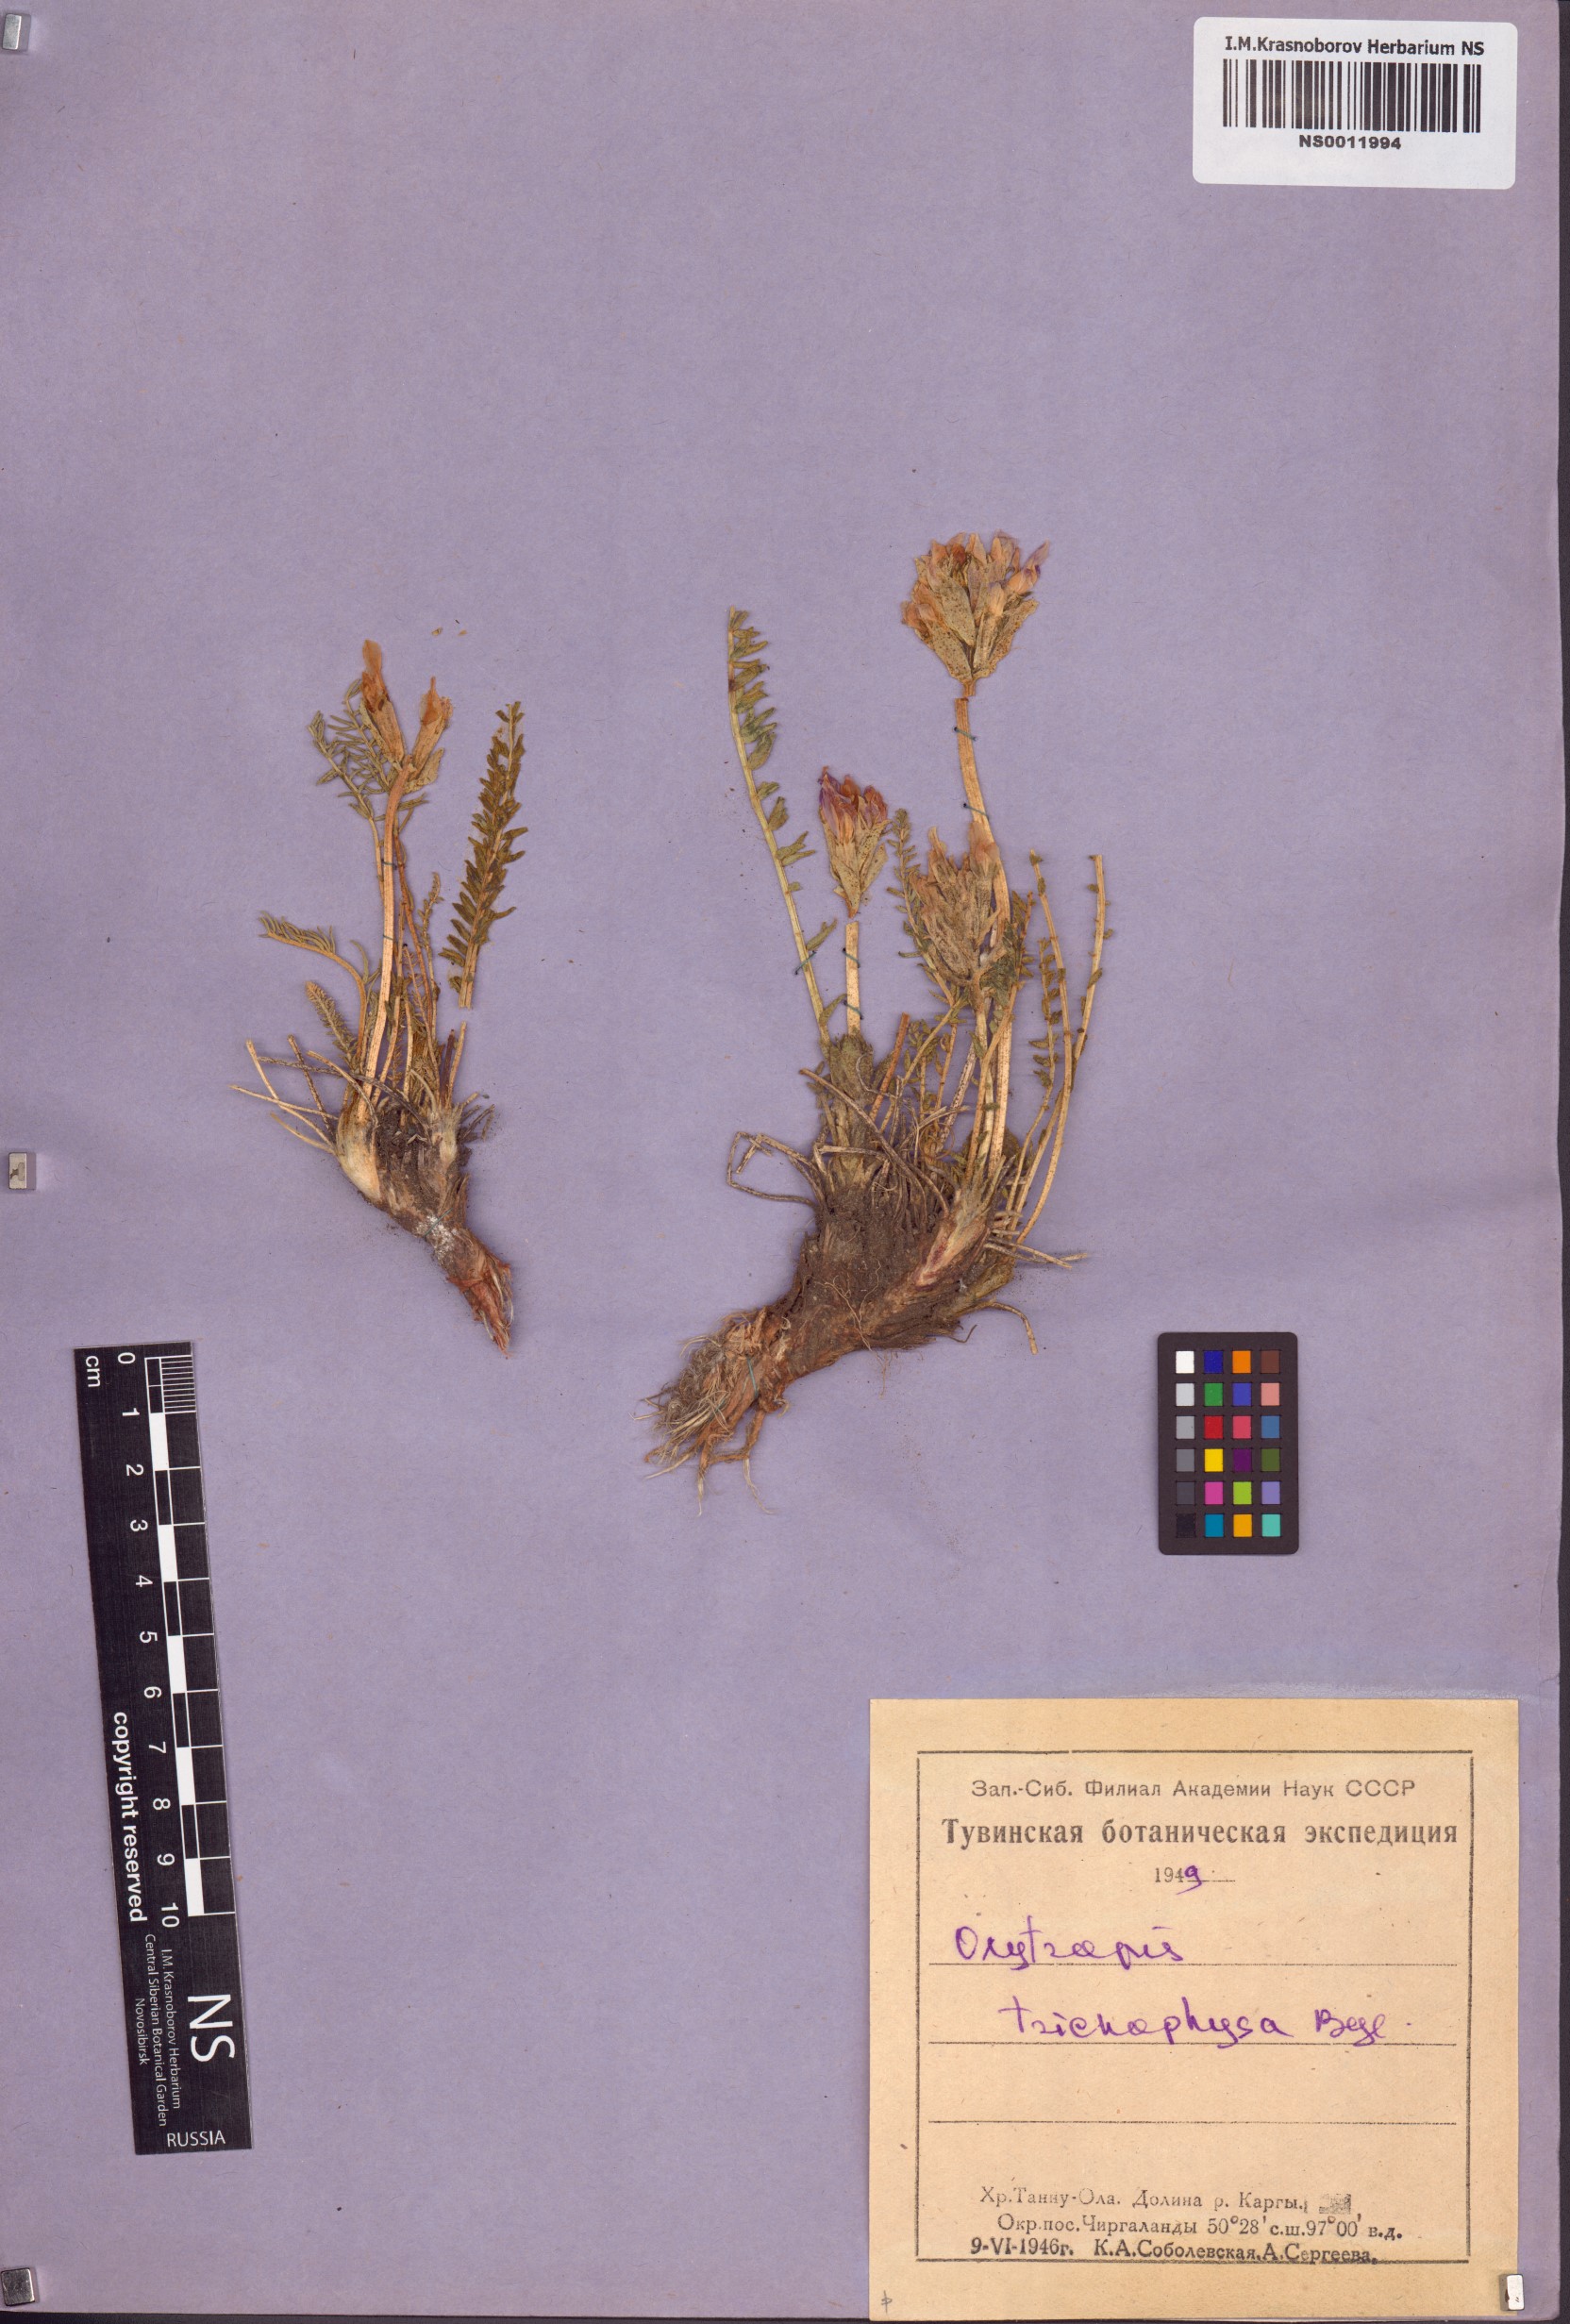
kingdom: Plantae
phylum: Tracheophyta
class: Magnoliopsida
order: Fabales
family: Fabaceae
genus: Oxytropis
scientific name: Oxytropis trichophysa
